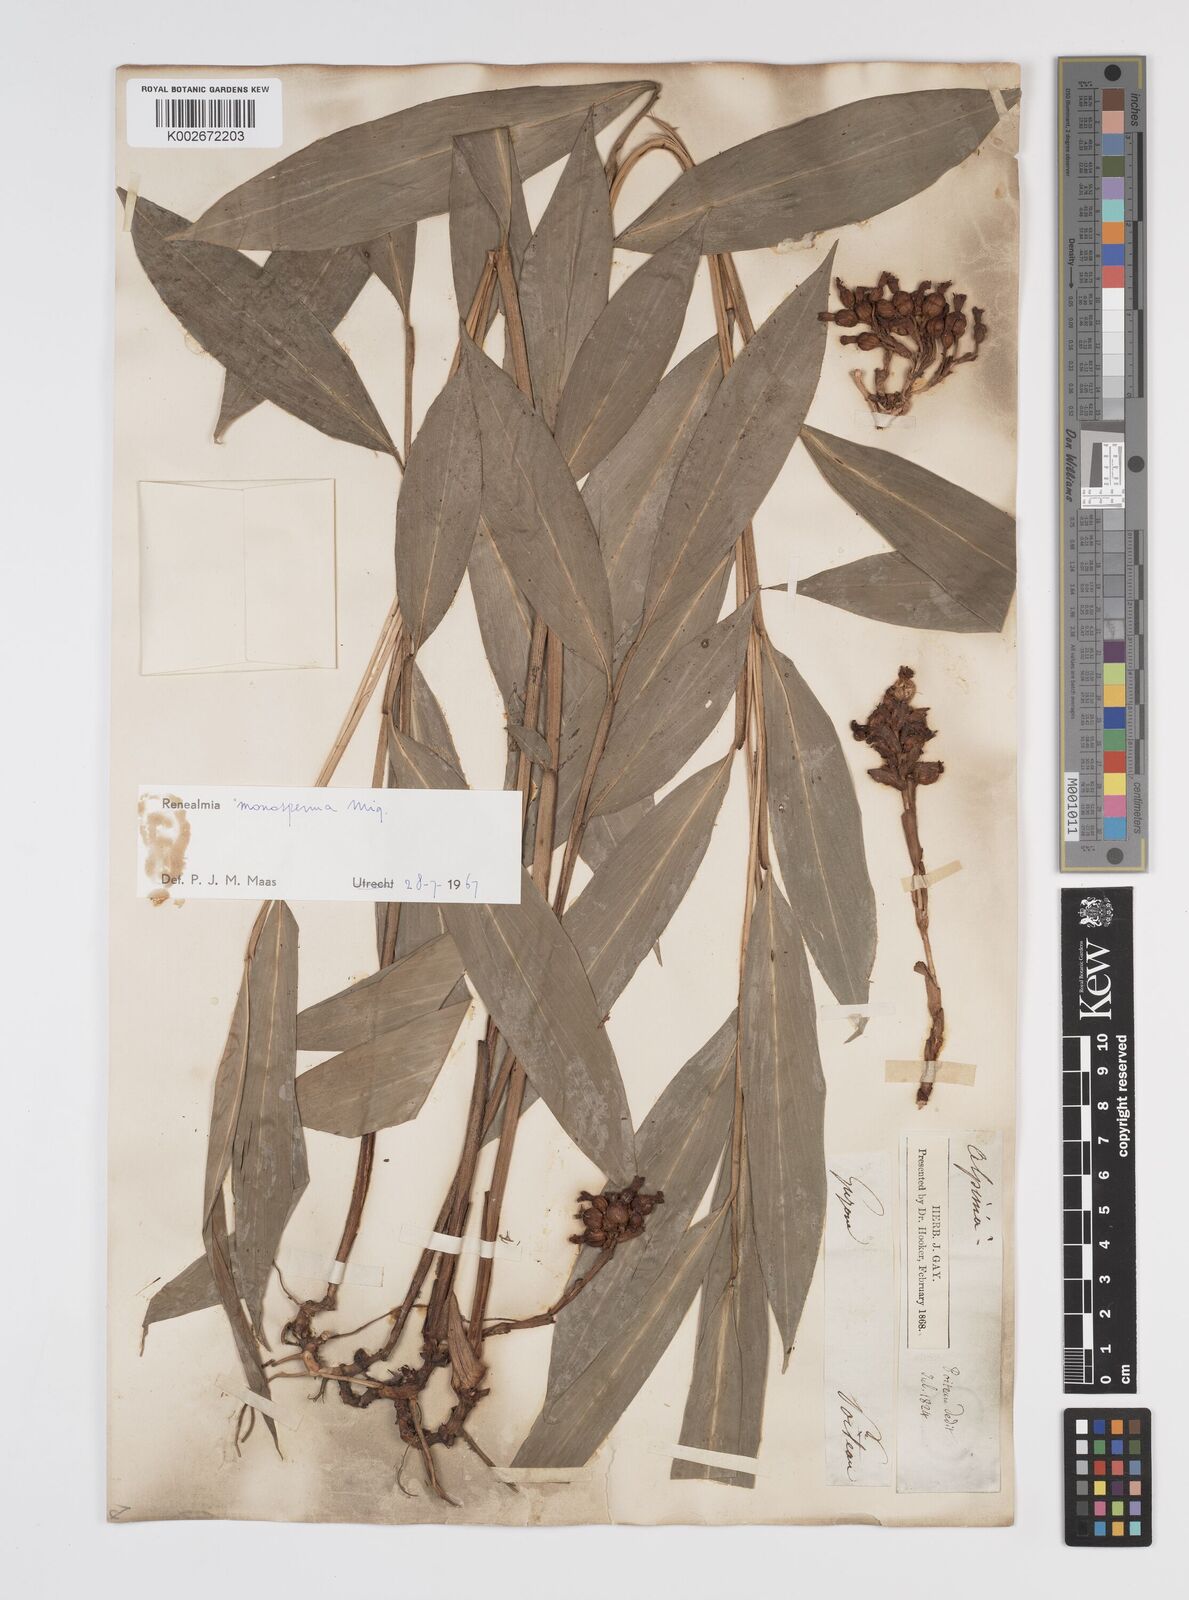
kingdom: Plantae
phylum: Tracheophyta
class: Liliopsida
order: Zingiberales
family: Zingiberaceae
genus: Renealmia
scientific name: Renealmia monosperma
